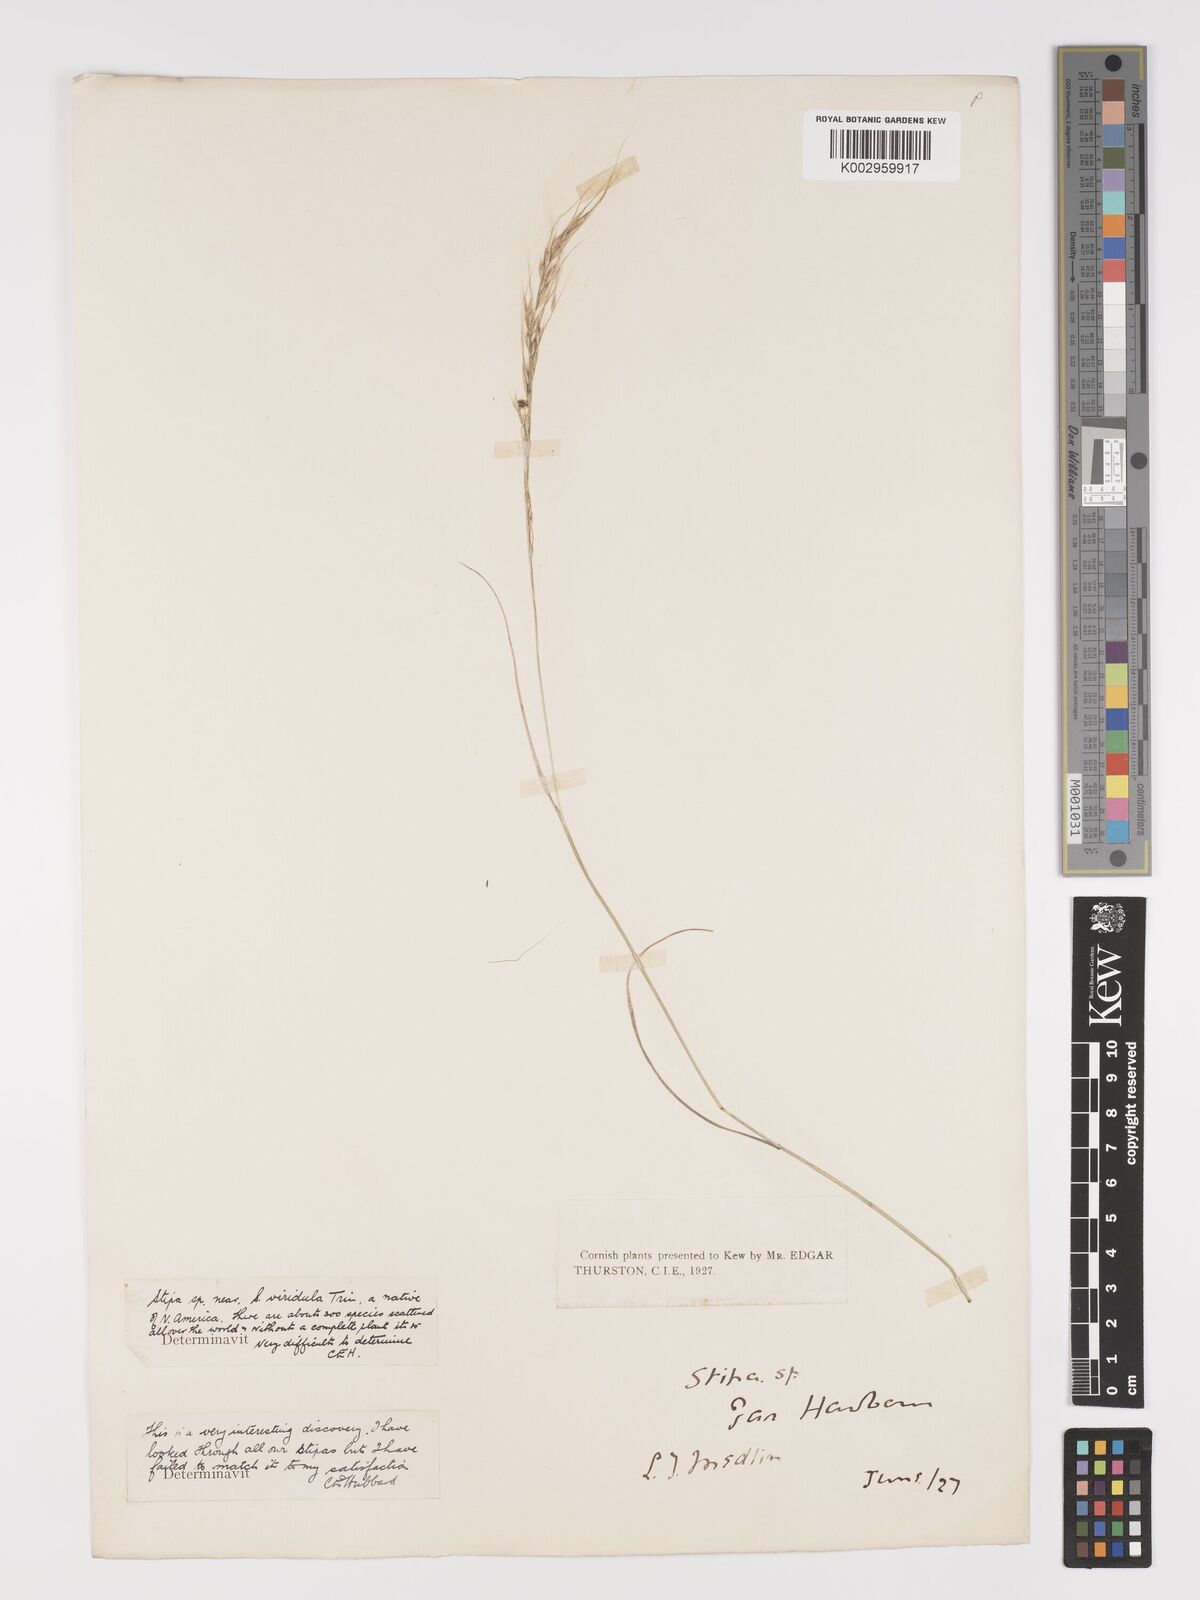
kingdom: Plantae
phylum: Tracheophyta
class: Liliopsida
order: Poales
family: Poaceae
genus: Stipa
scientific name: Stipa
